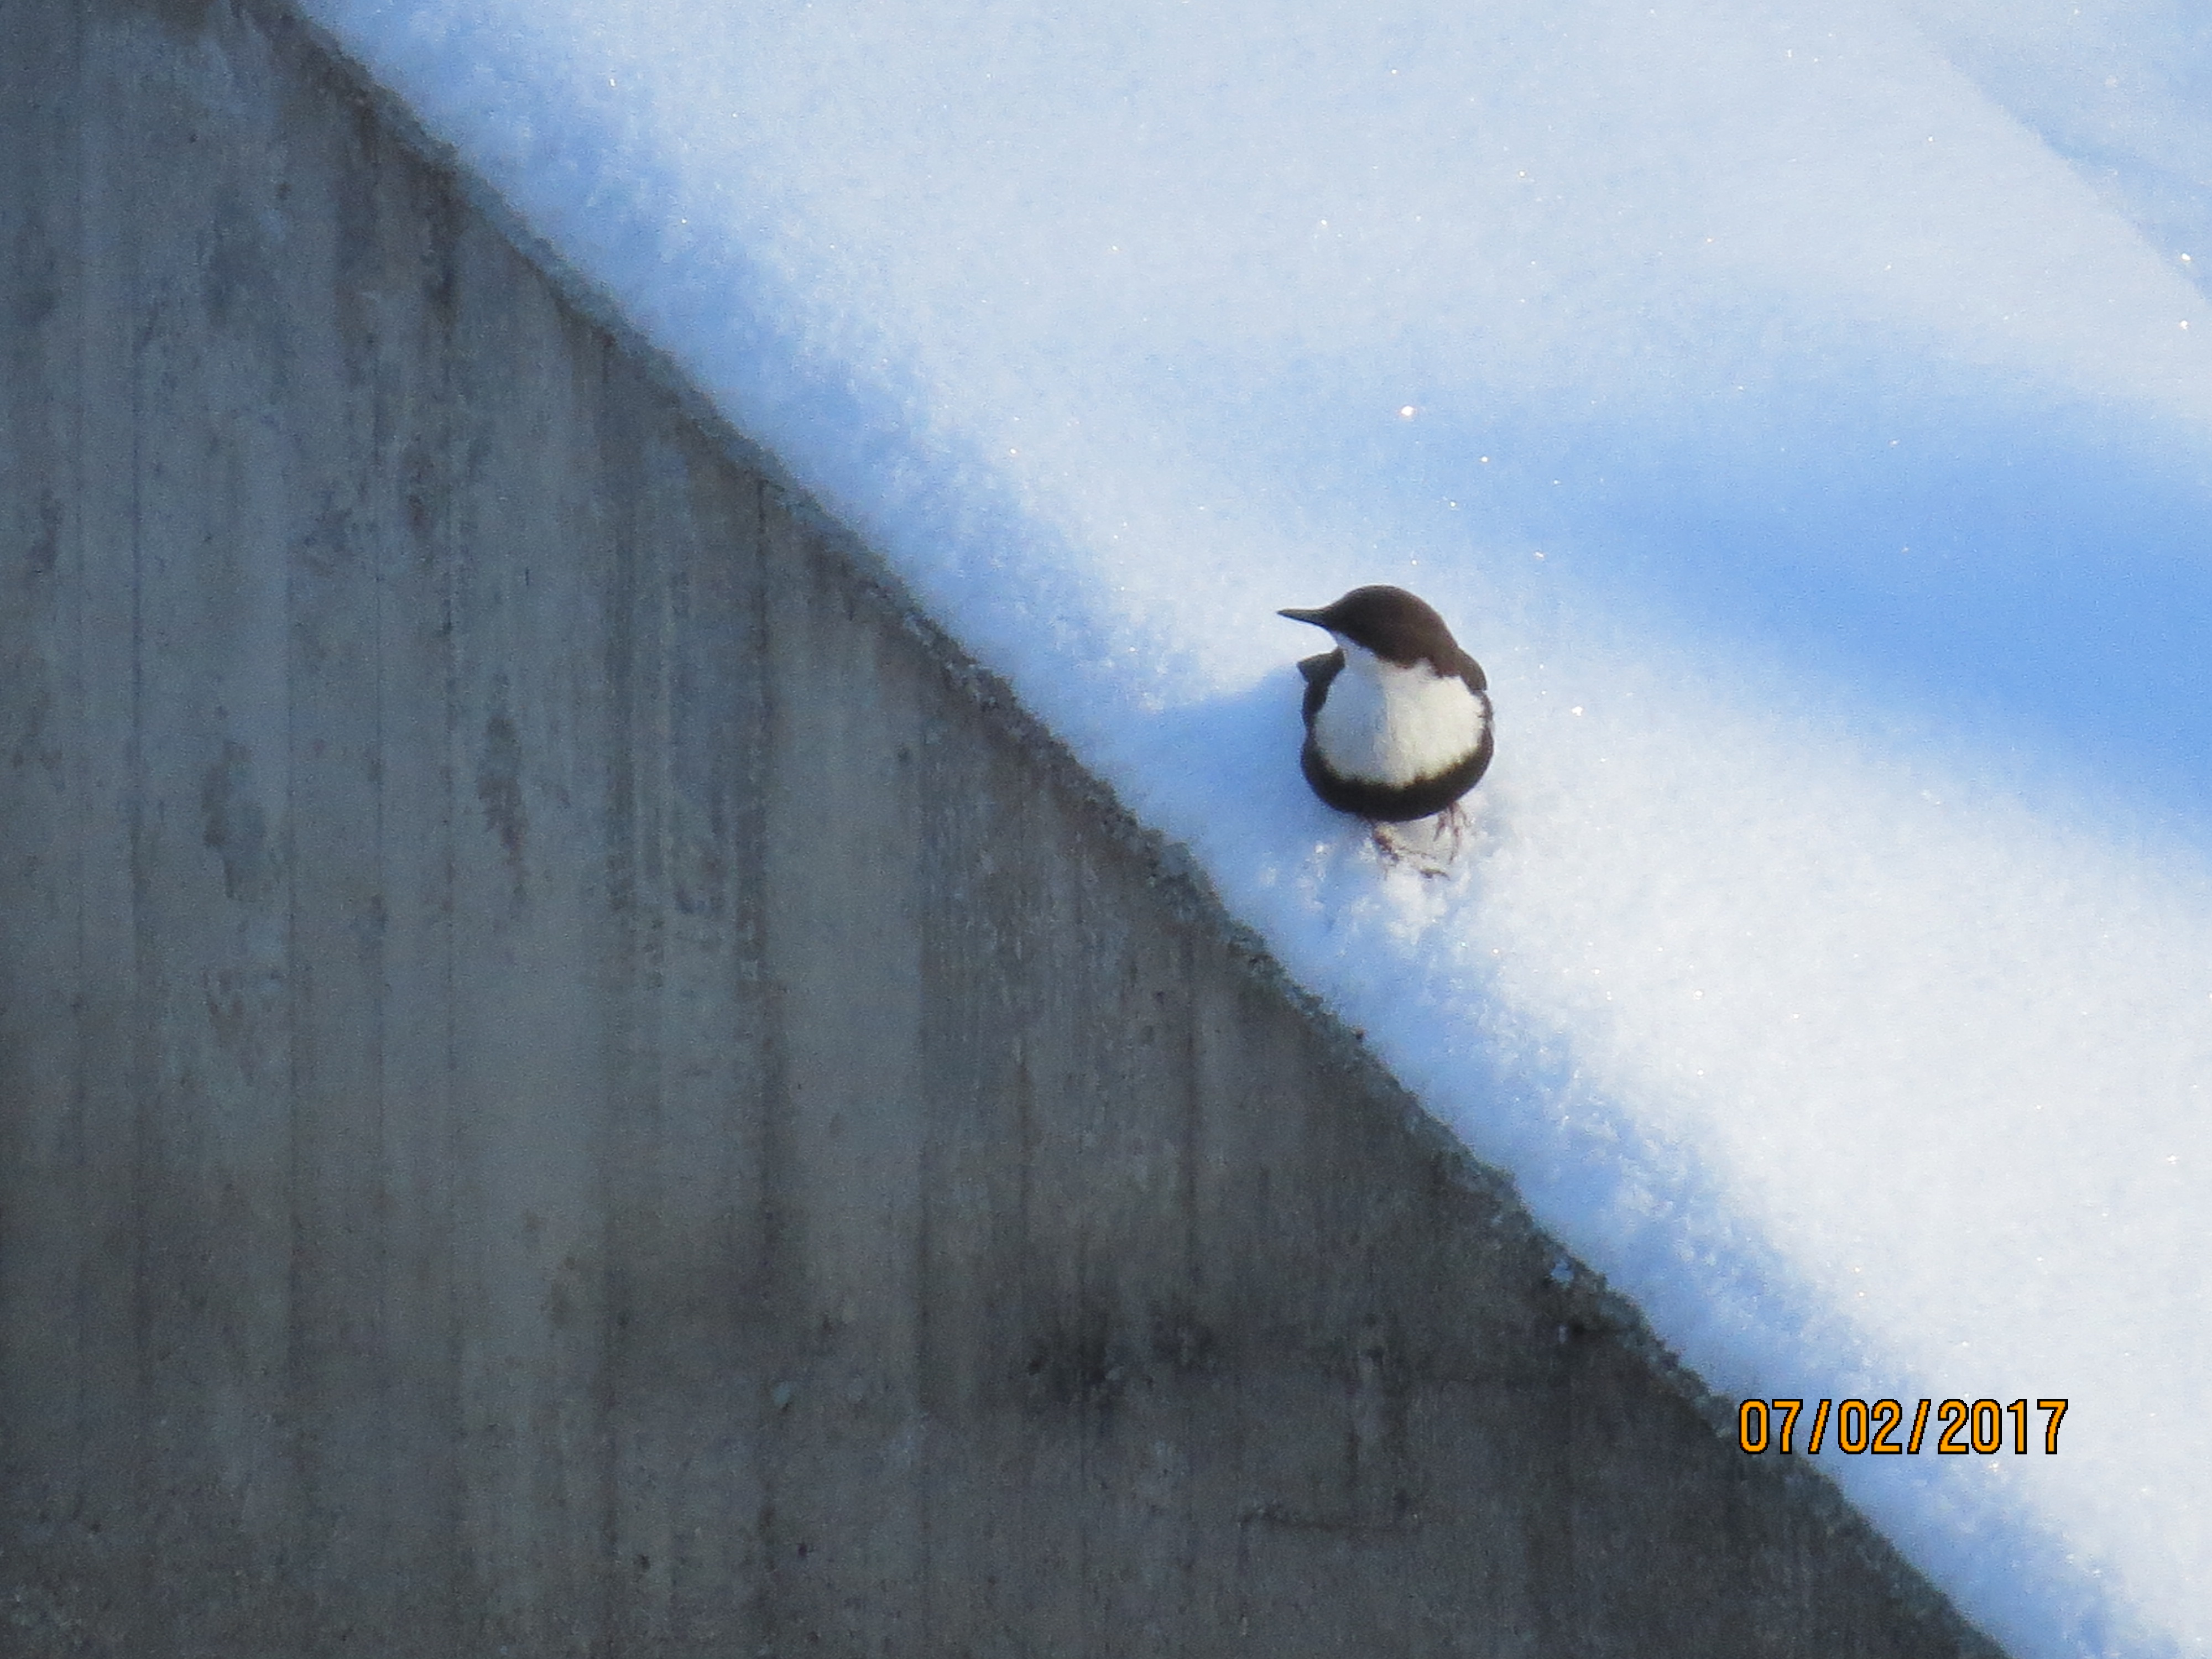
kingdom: Animalia
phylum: Chordata
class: Aves
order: Passeriformes
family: Cinclidae
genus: Cinclus
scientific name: Cinclus cinclus
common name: White-throated dipper
